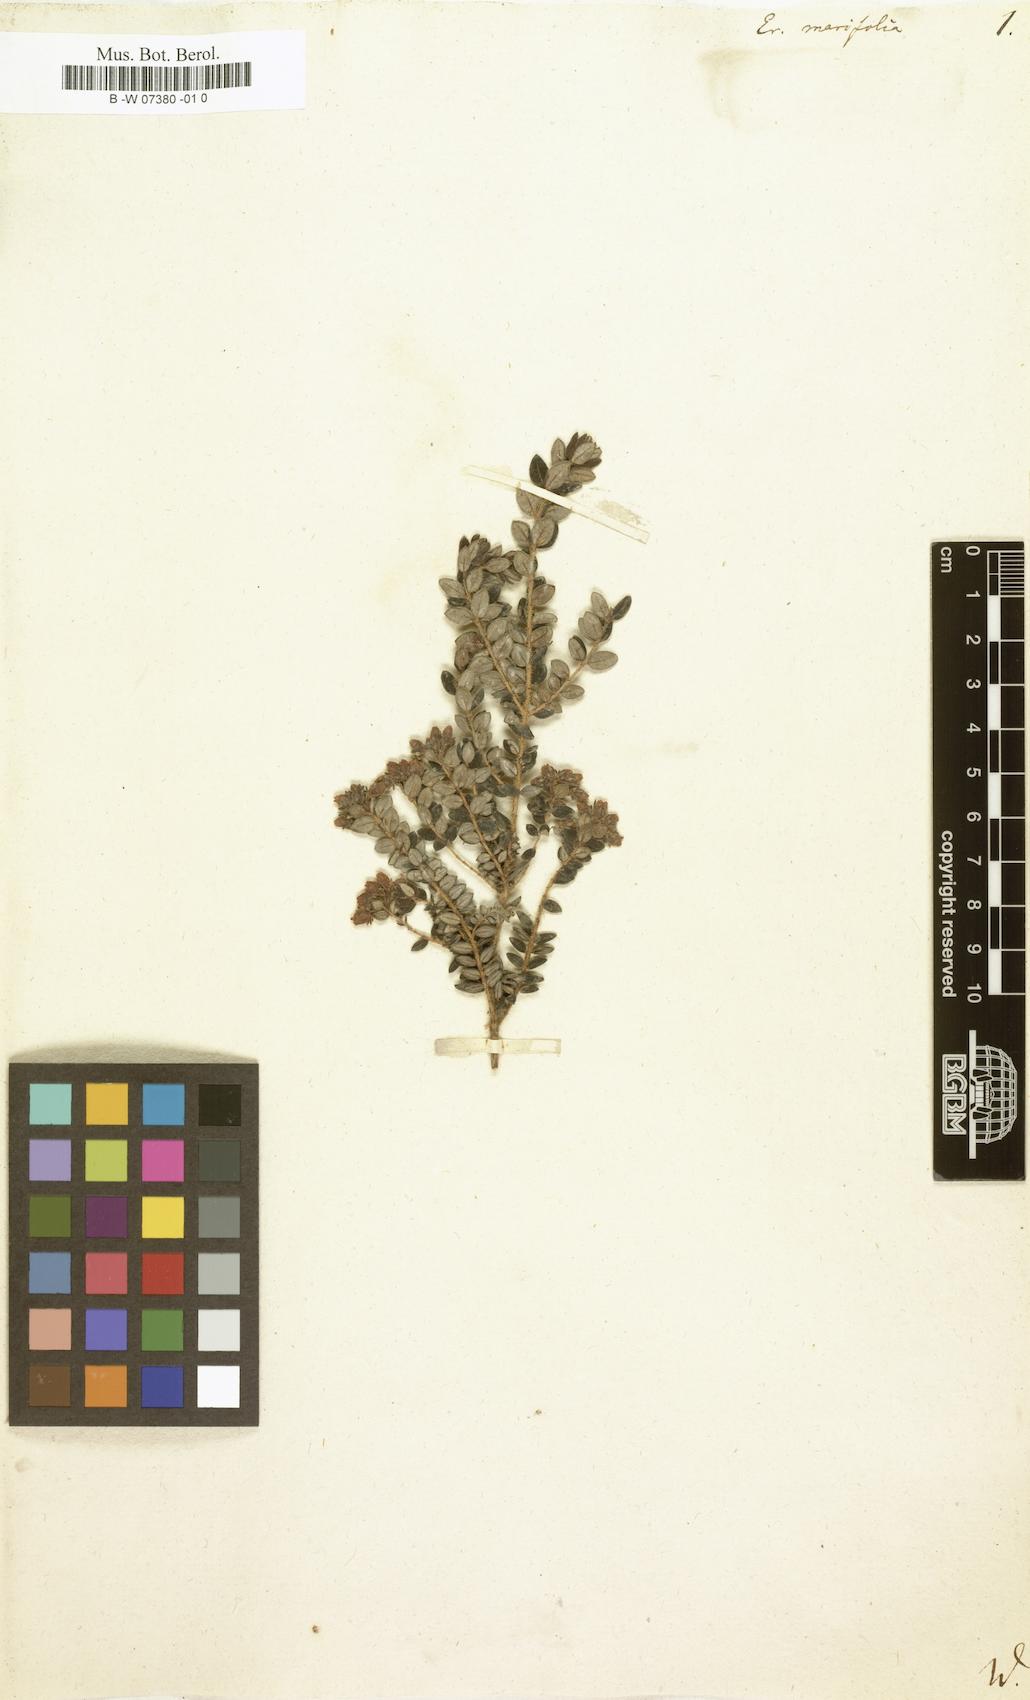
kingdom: Plantae
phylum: Tracheophyta
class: Magnoliopsida
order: Ericales
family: Ericaceae
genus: Erica
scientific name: Erica marifolia
